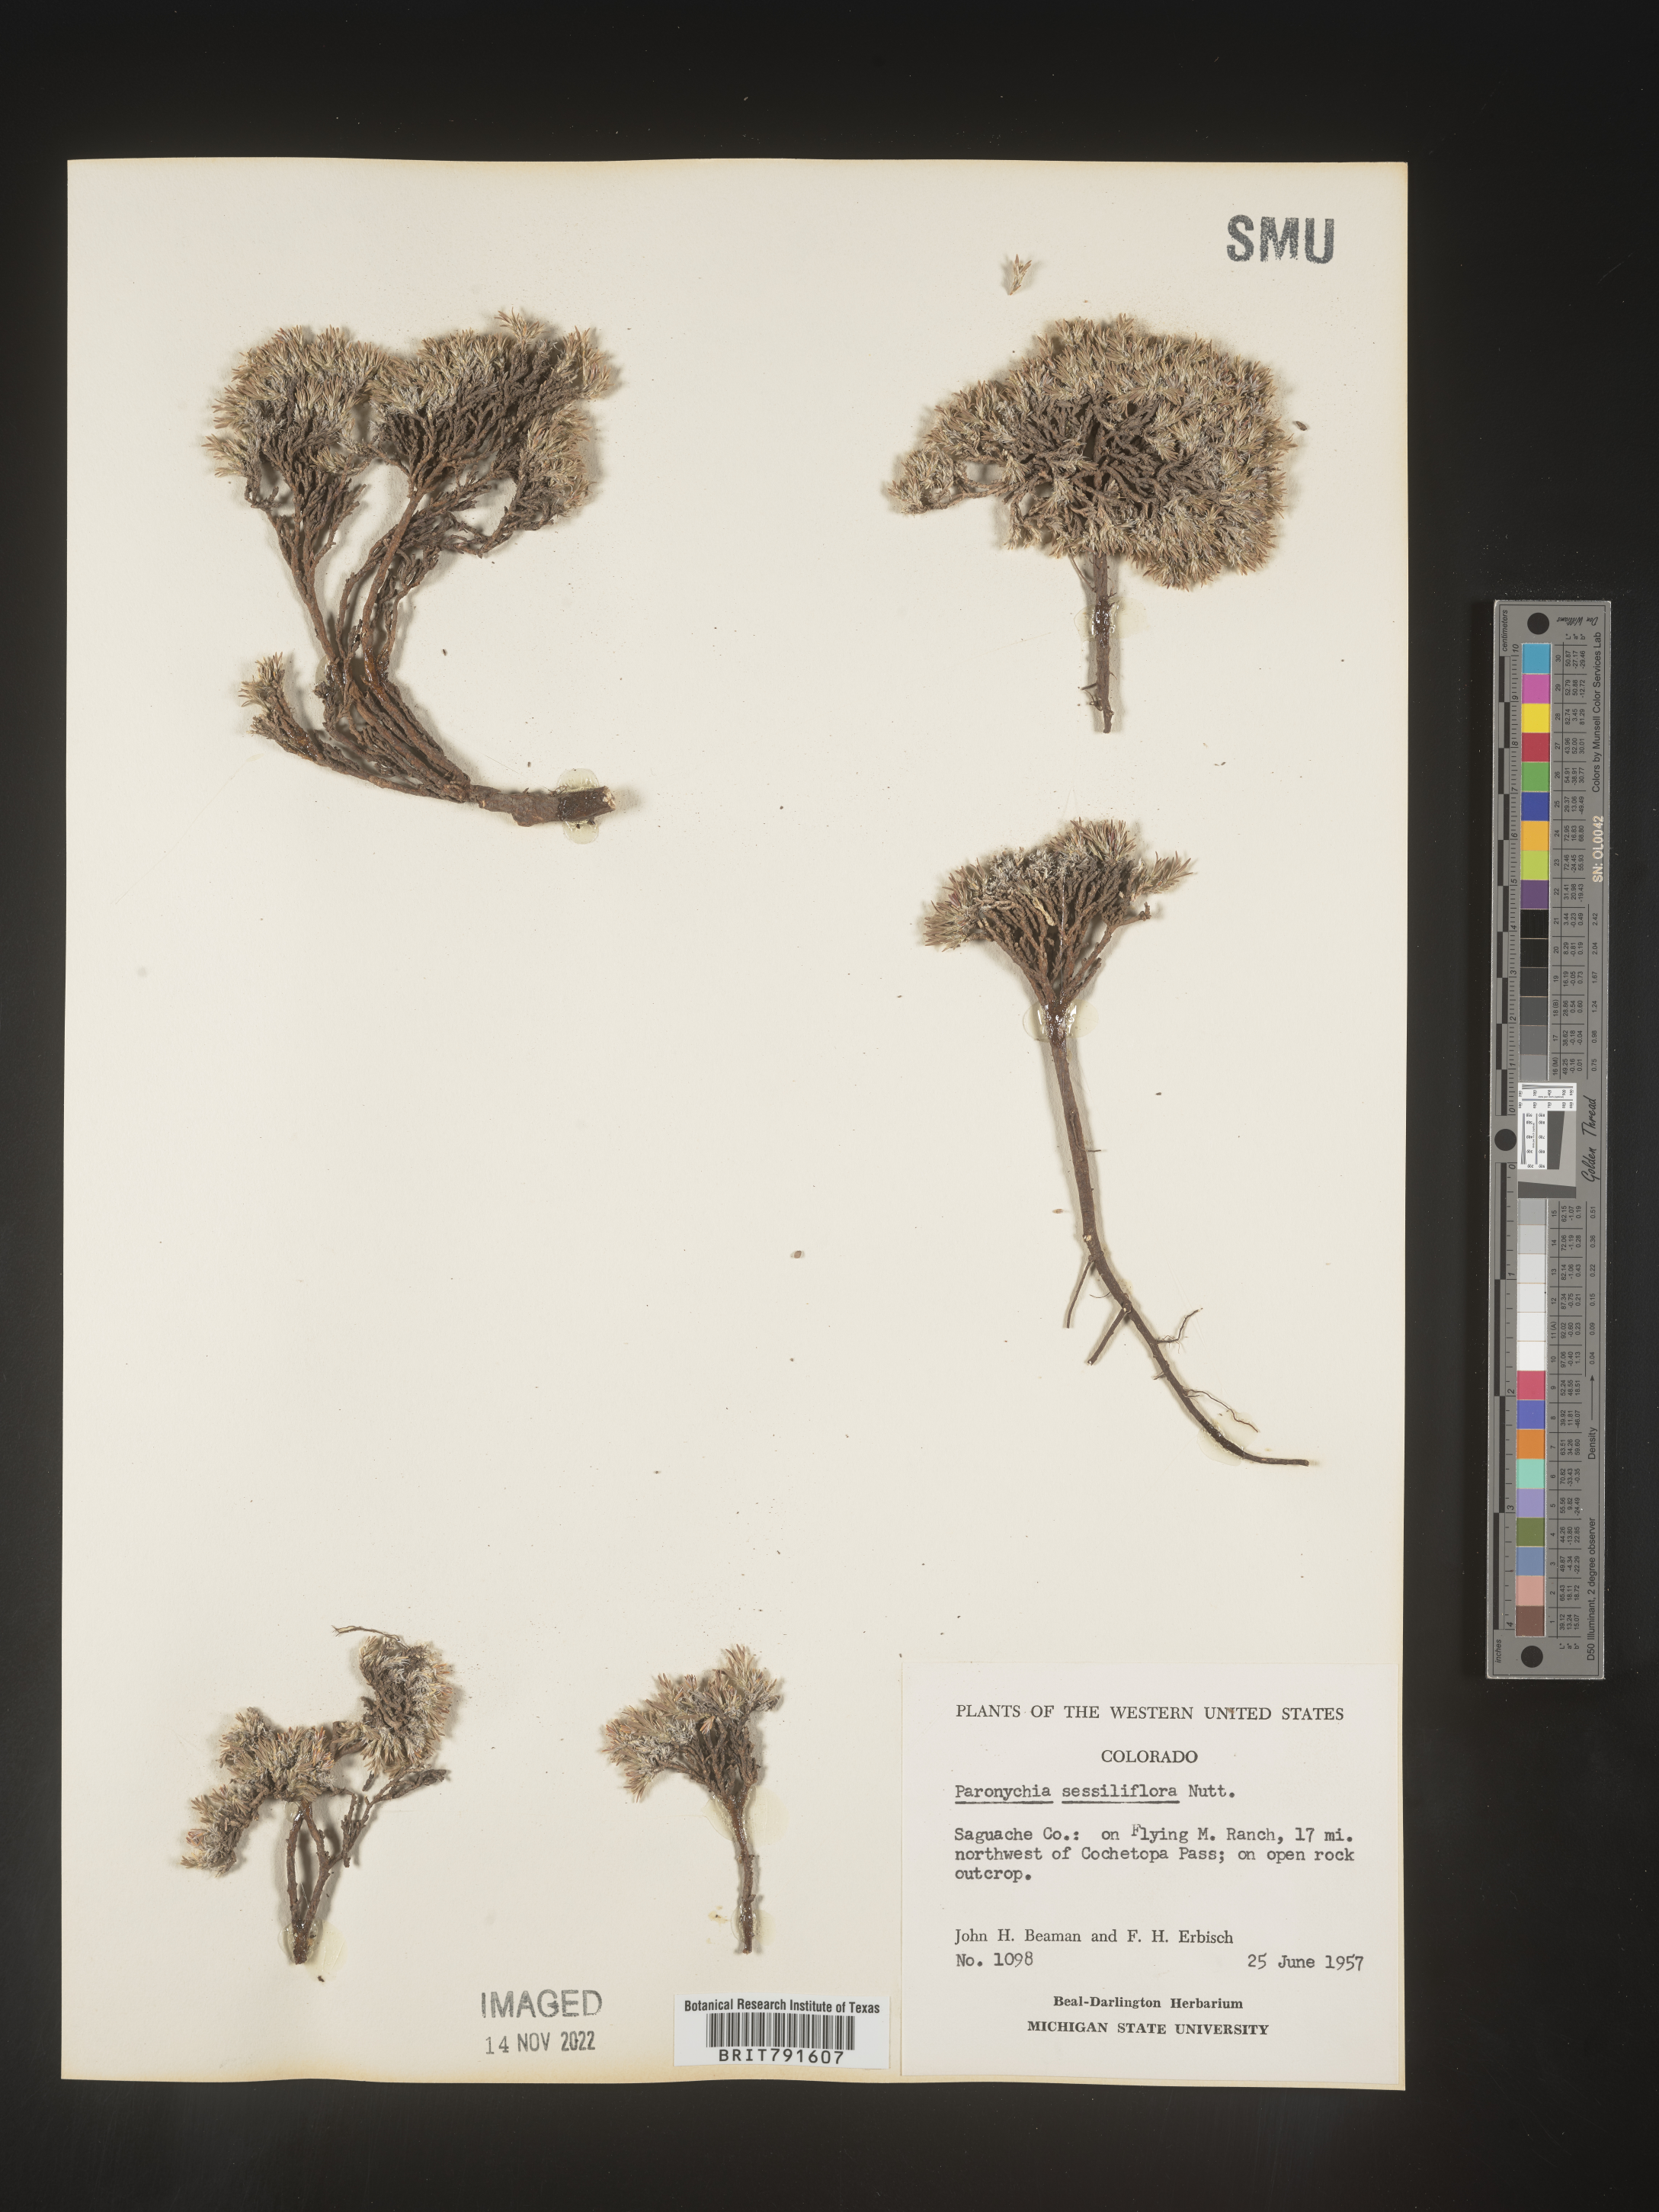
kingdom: Plantae
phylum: Tracheophyta
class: Magnoliopsida
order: Caryophyllales
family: Caryophyllaceae
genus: Paronychia
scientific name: Paronychia sessiliflora
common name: Creeping nailwort
